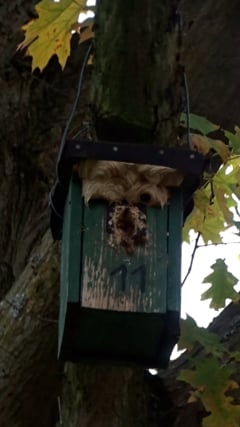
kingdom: Animalia
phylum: Arthropoda
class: Insecta
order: Hymenoptera
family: Vespidae
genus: Vespa
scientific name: Vespa crabro
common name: Hornet
